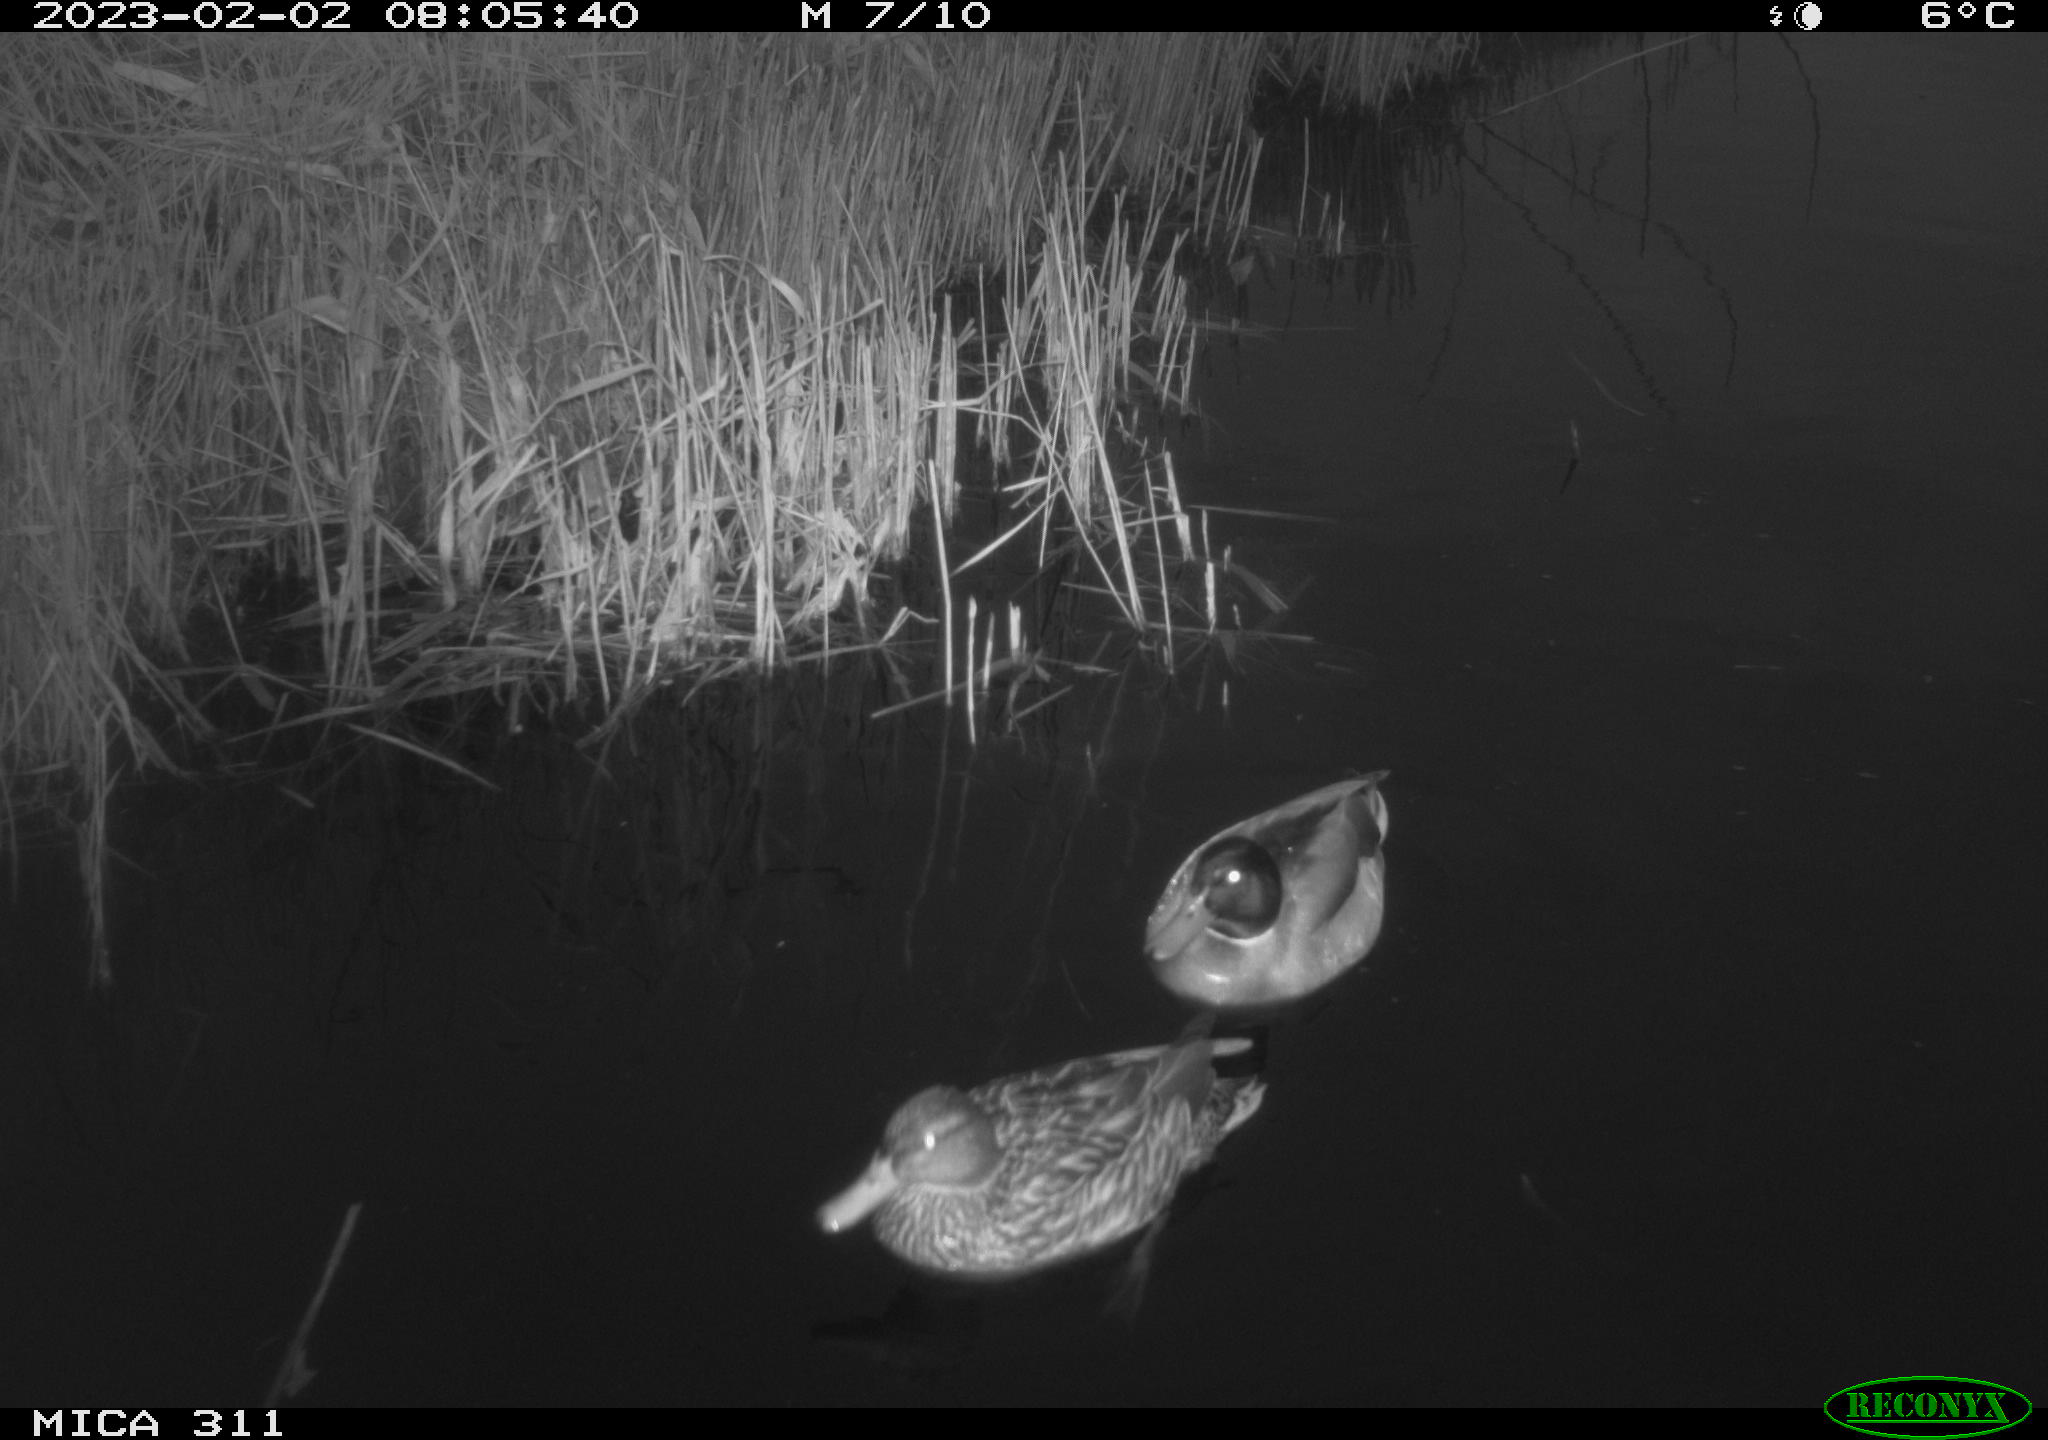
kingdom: Animalia
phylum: Chordata
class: Aves
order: Anseriformes
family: Anatidae
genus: Anas
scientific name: Anas
